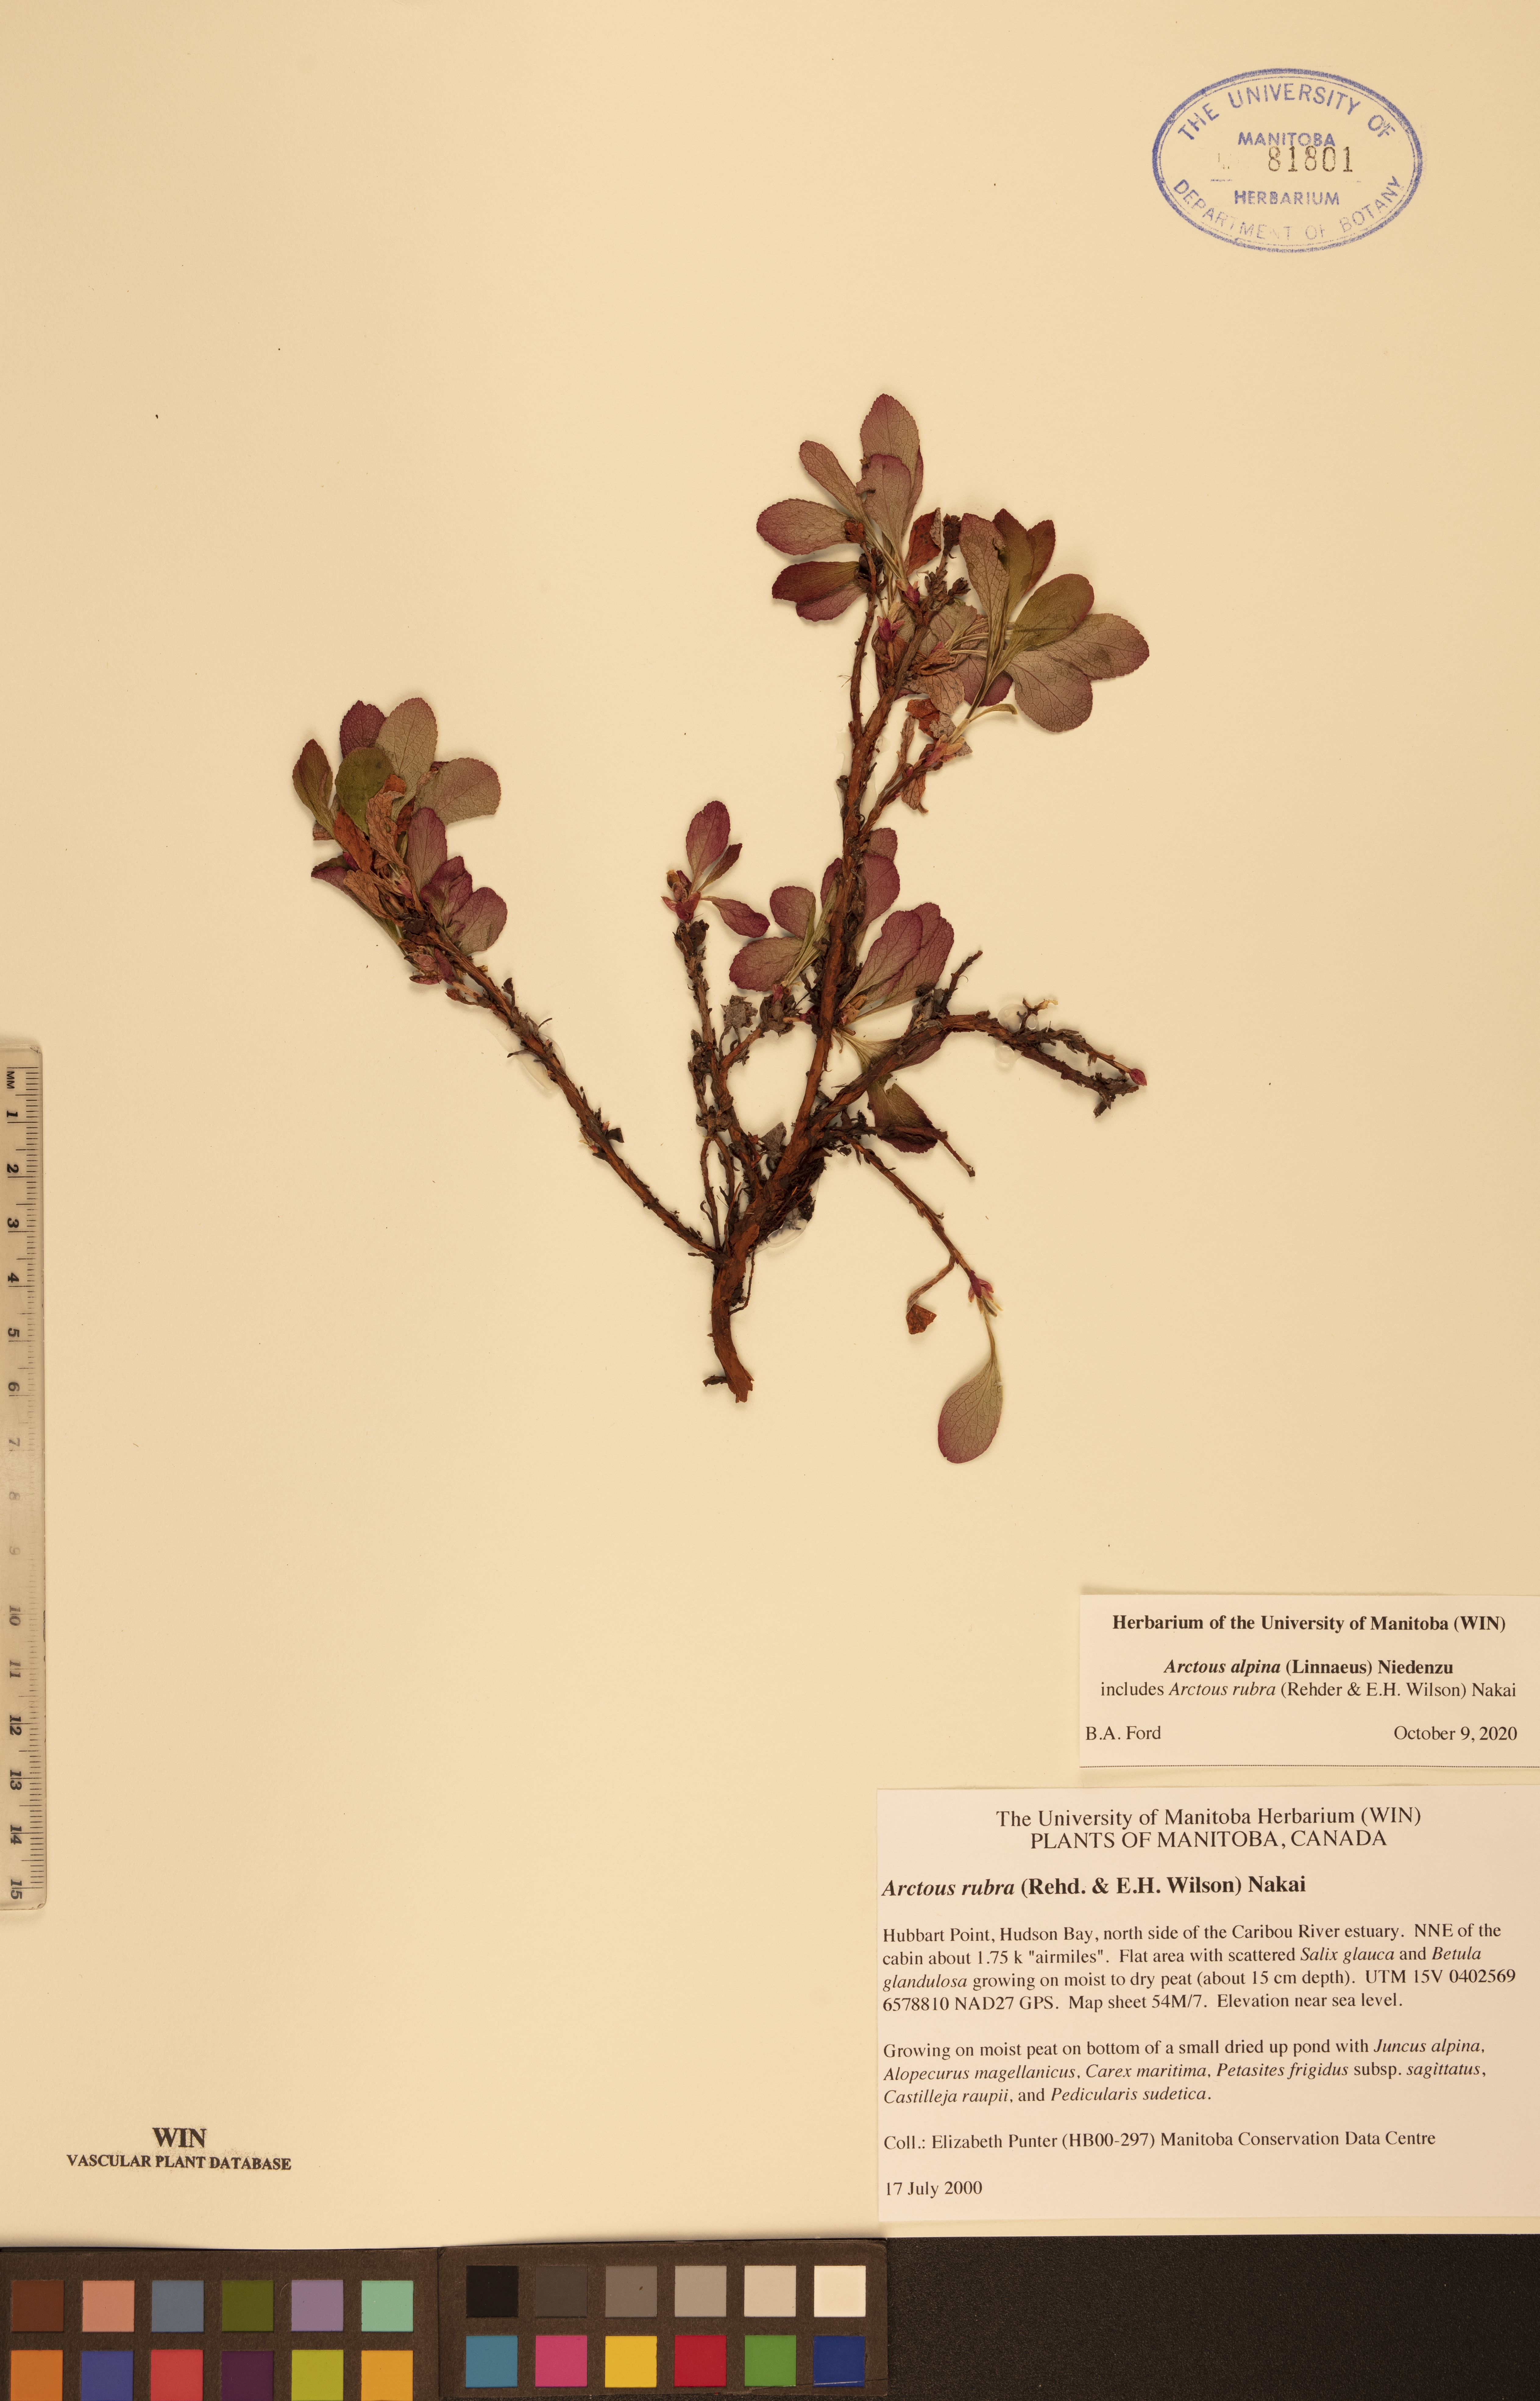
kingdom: Plantae
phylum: Tracheophyta
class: Magnoliopsida
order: Ericales
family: Ericaceae
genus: Arctostaphylos
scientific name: Arctostaphylos alpinus
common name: Alpine bearberry
